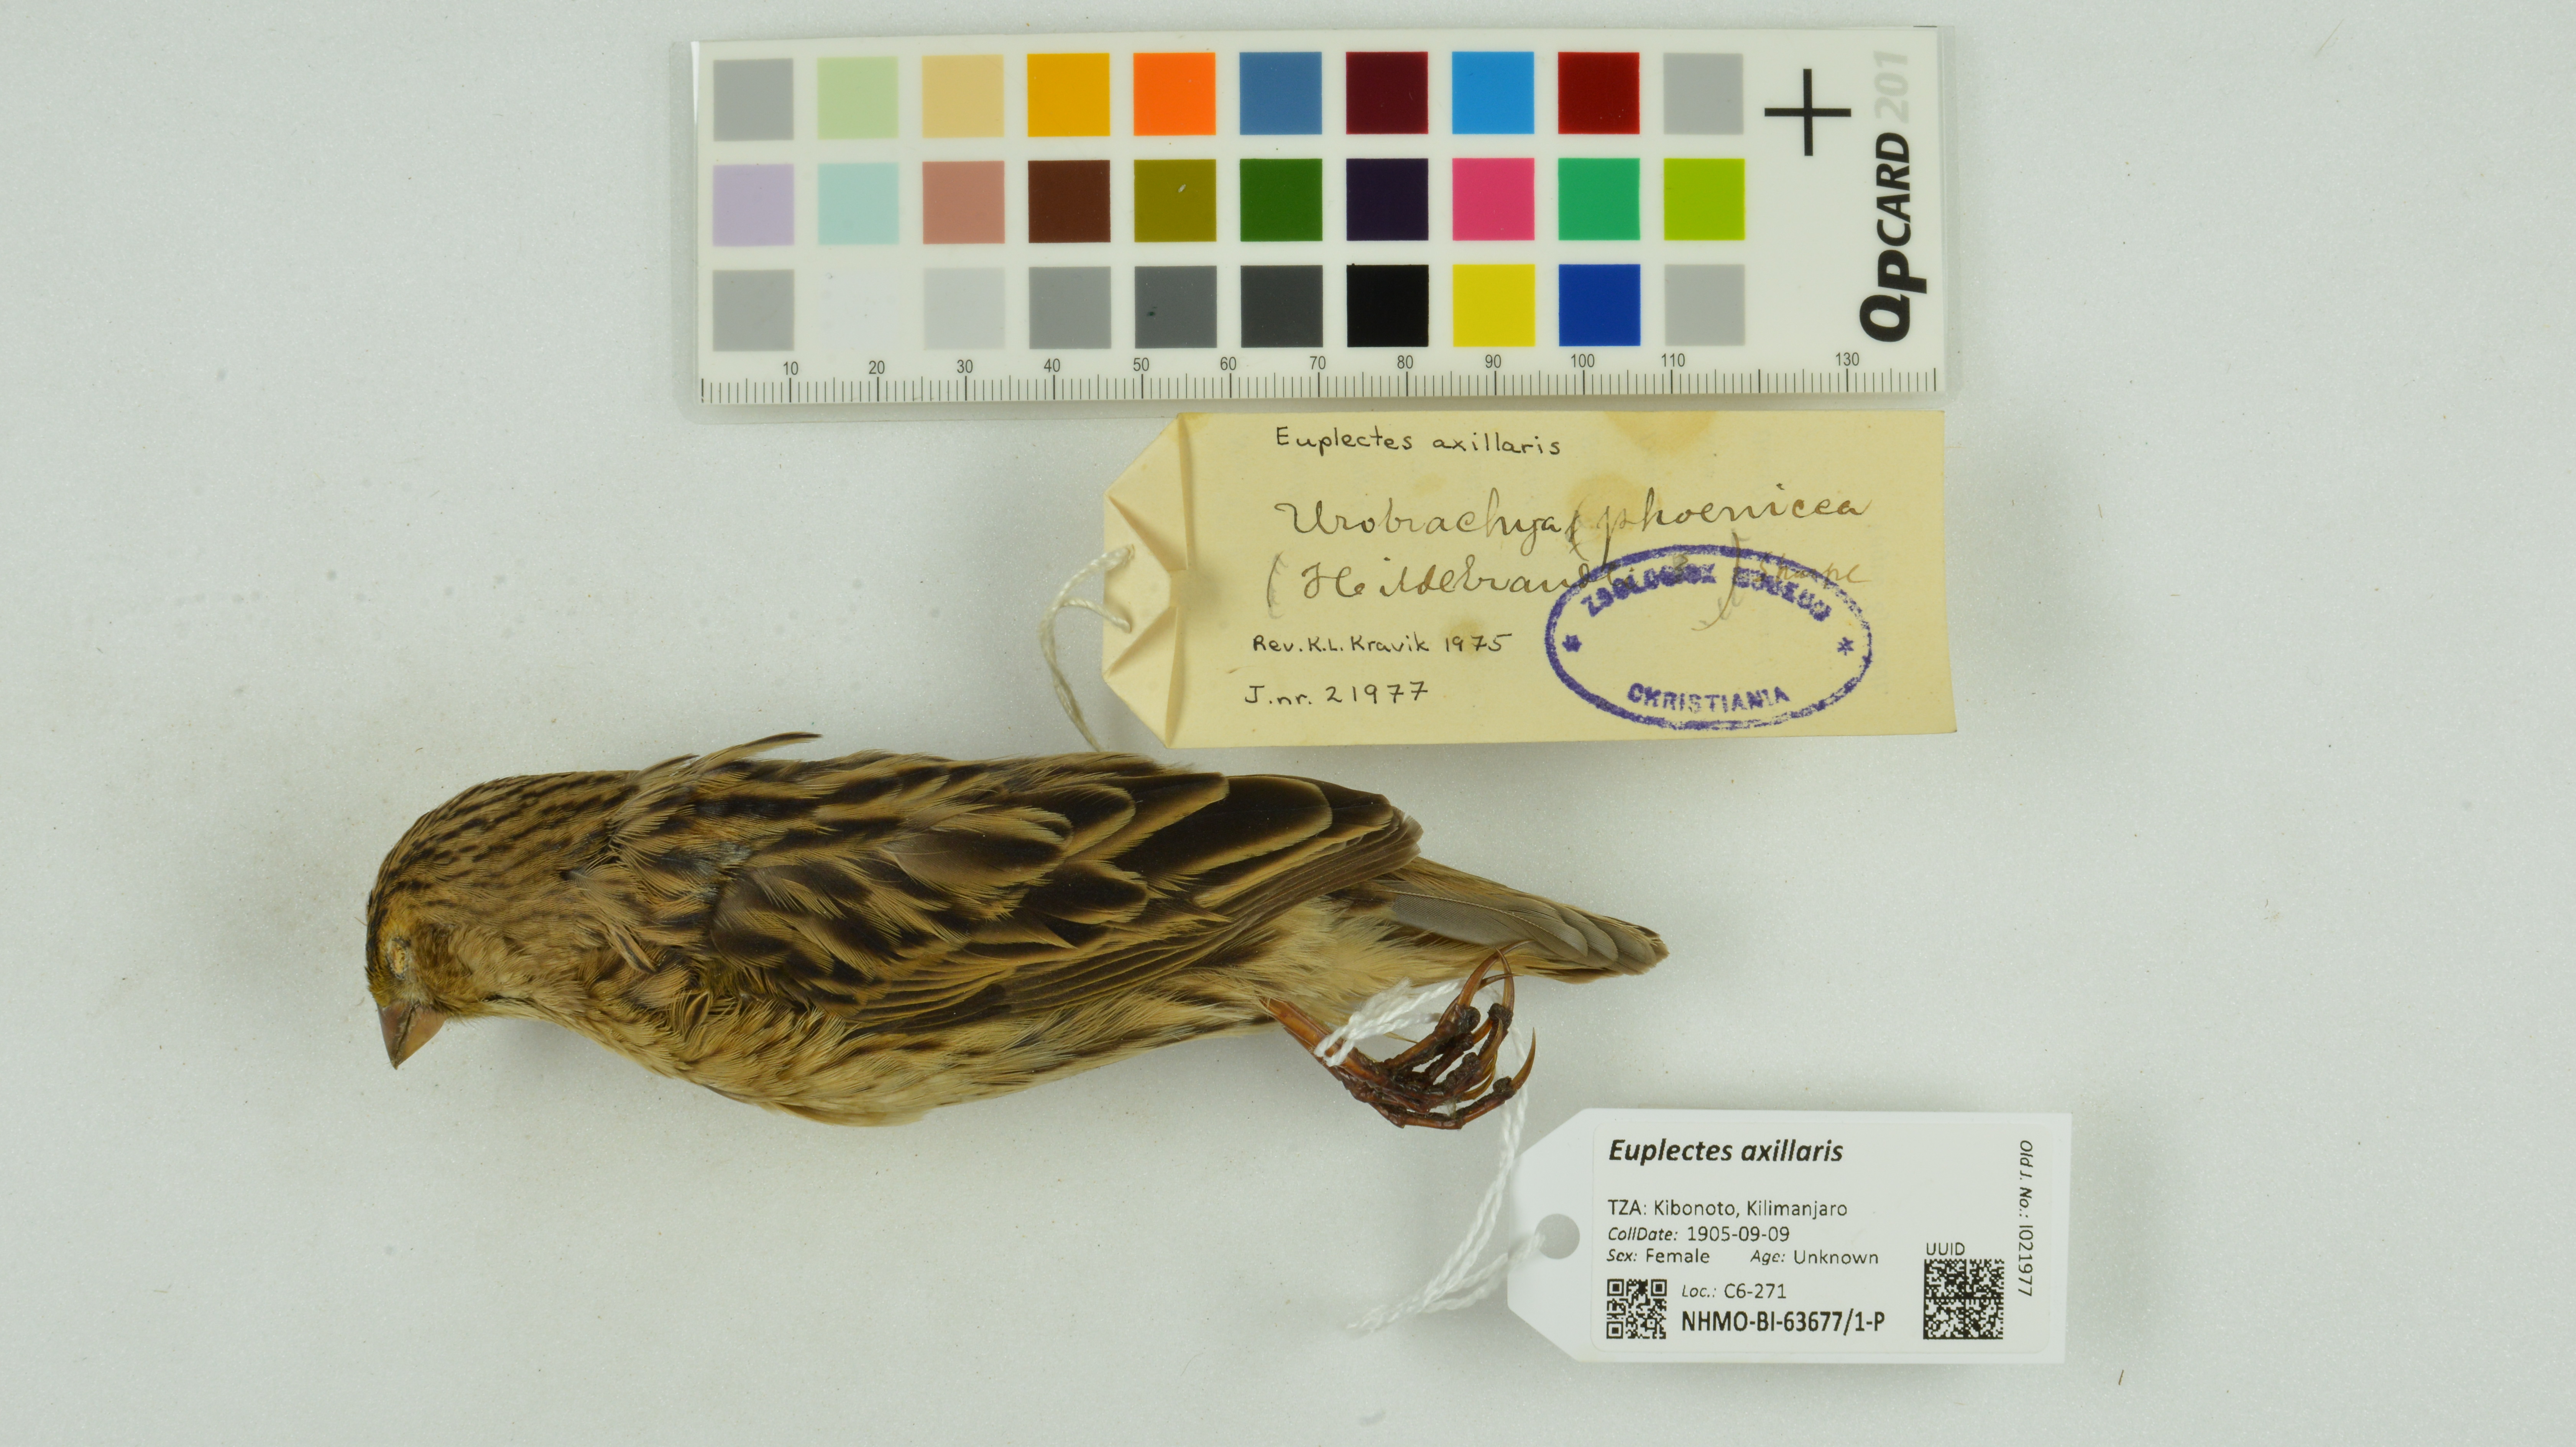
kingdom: Animalia
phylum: Chordata
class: Aves
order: Passeriformes
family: Ploceidae
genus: Euplectes
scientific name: Euplectes axillaris
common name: Fan-tailed widowbird
